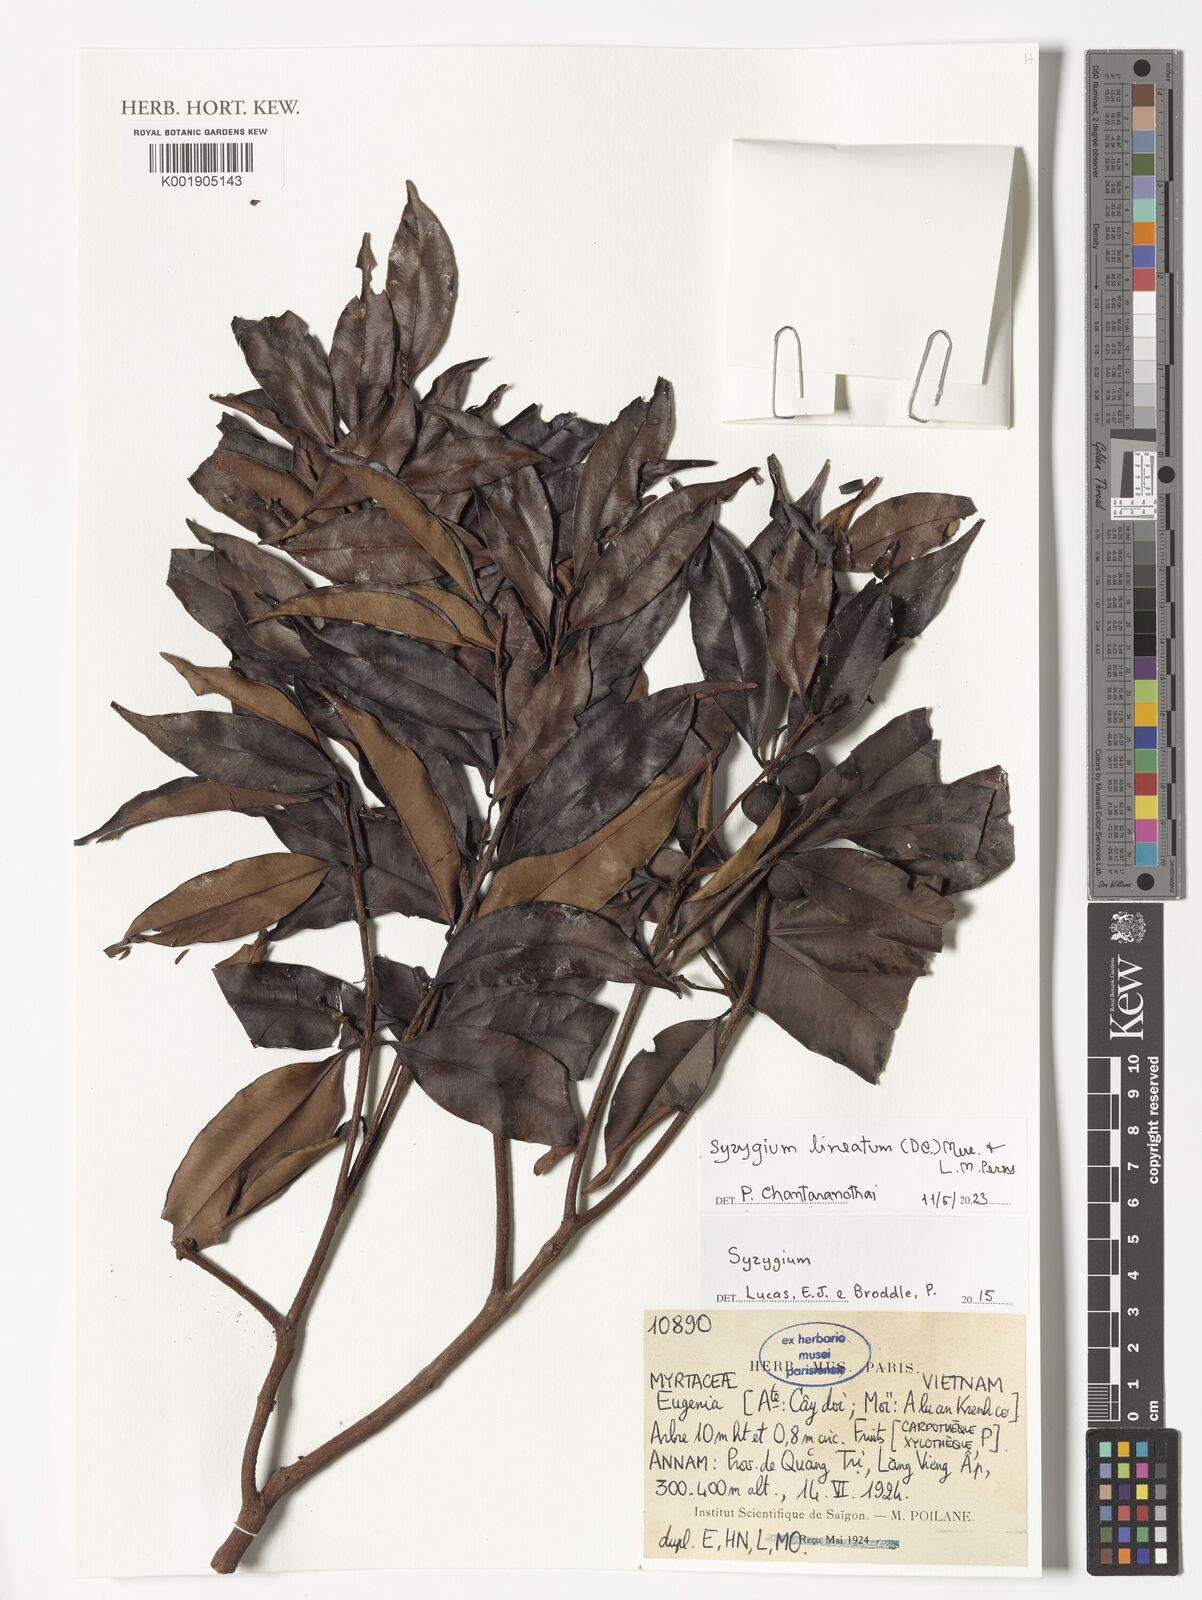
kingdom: Plantae
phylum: Tracheophyta
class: Magnoliopsida
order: Myrtales
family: Myrtaceae
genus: Syzygium
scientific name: Syzygium lineatum
